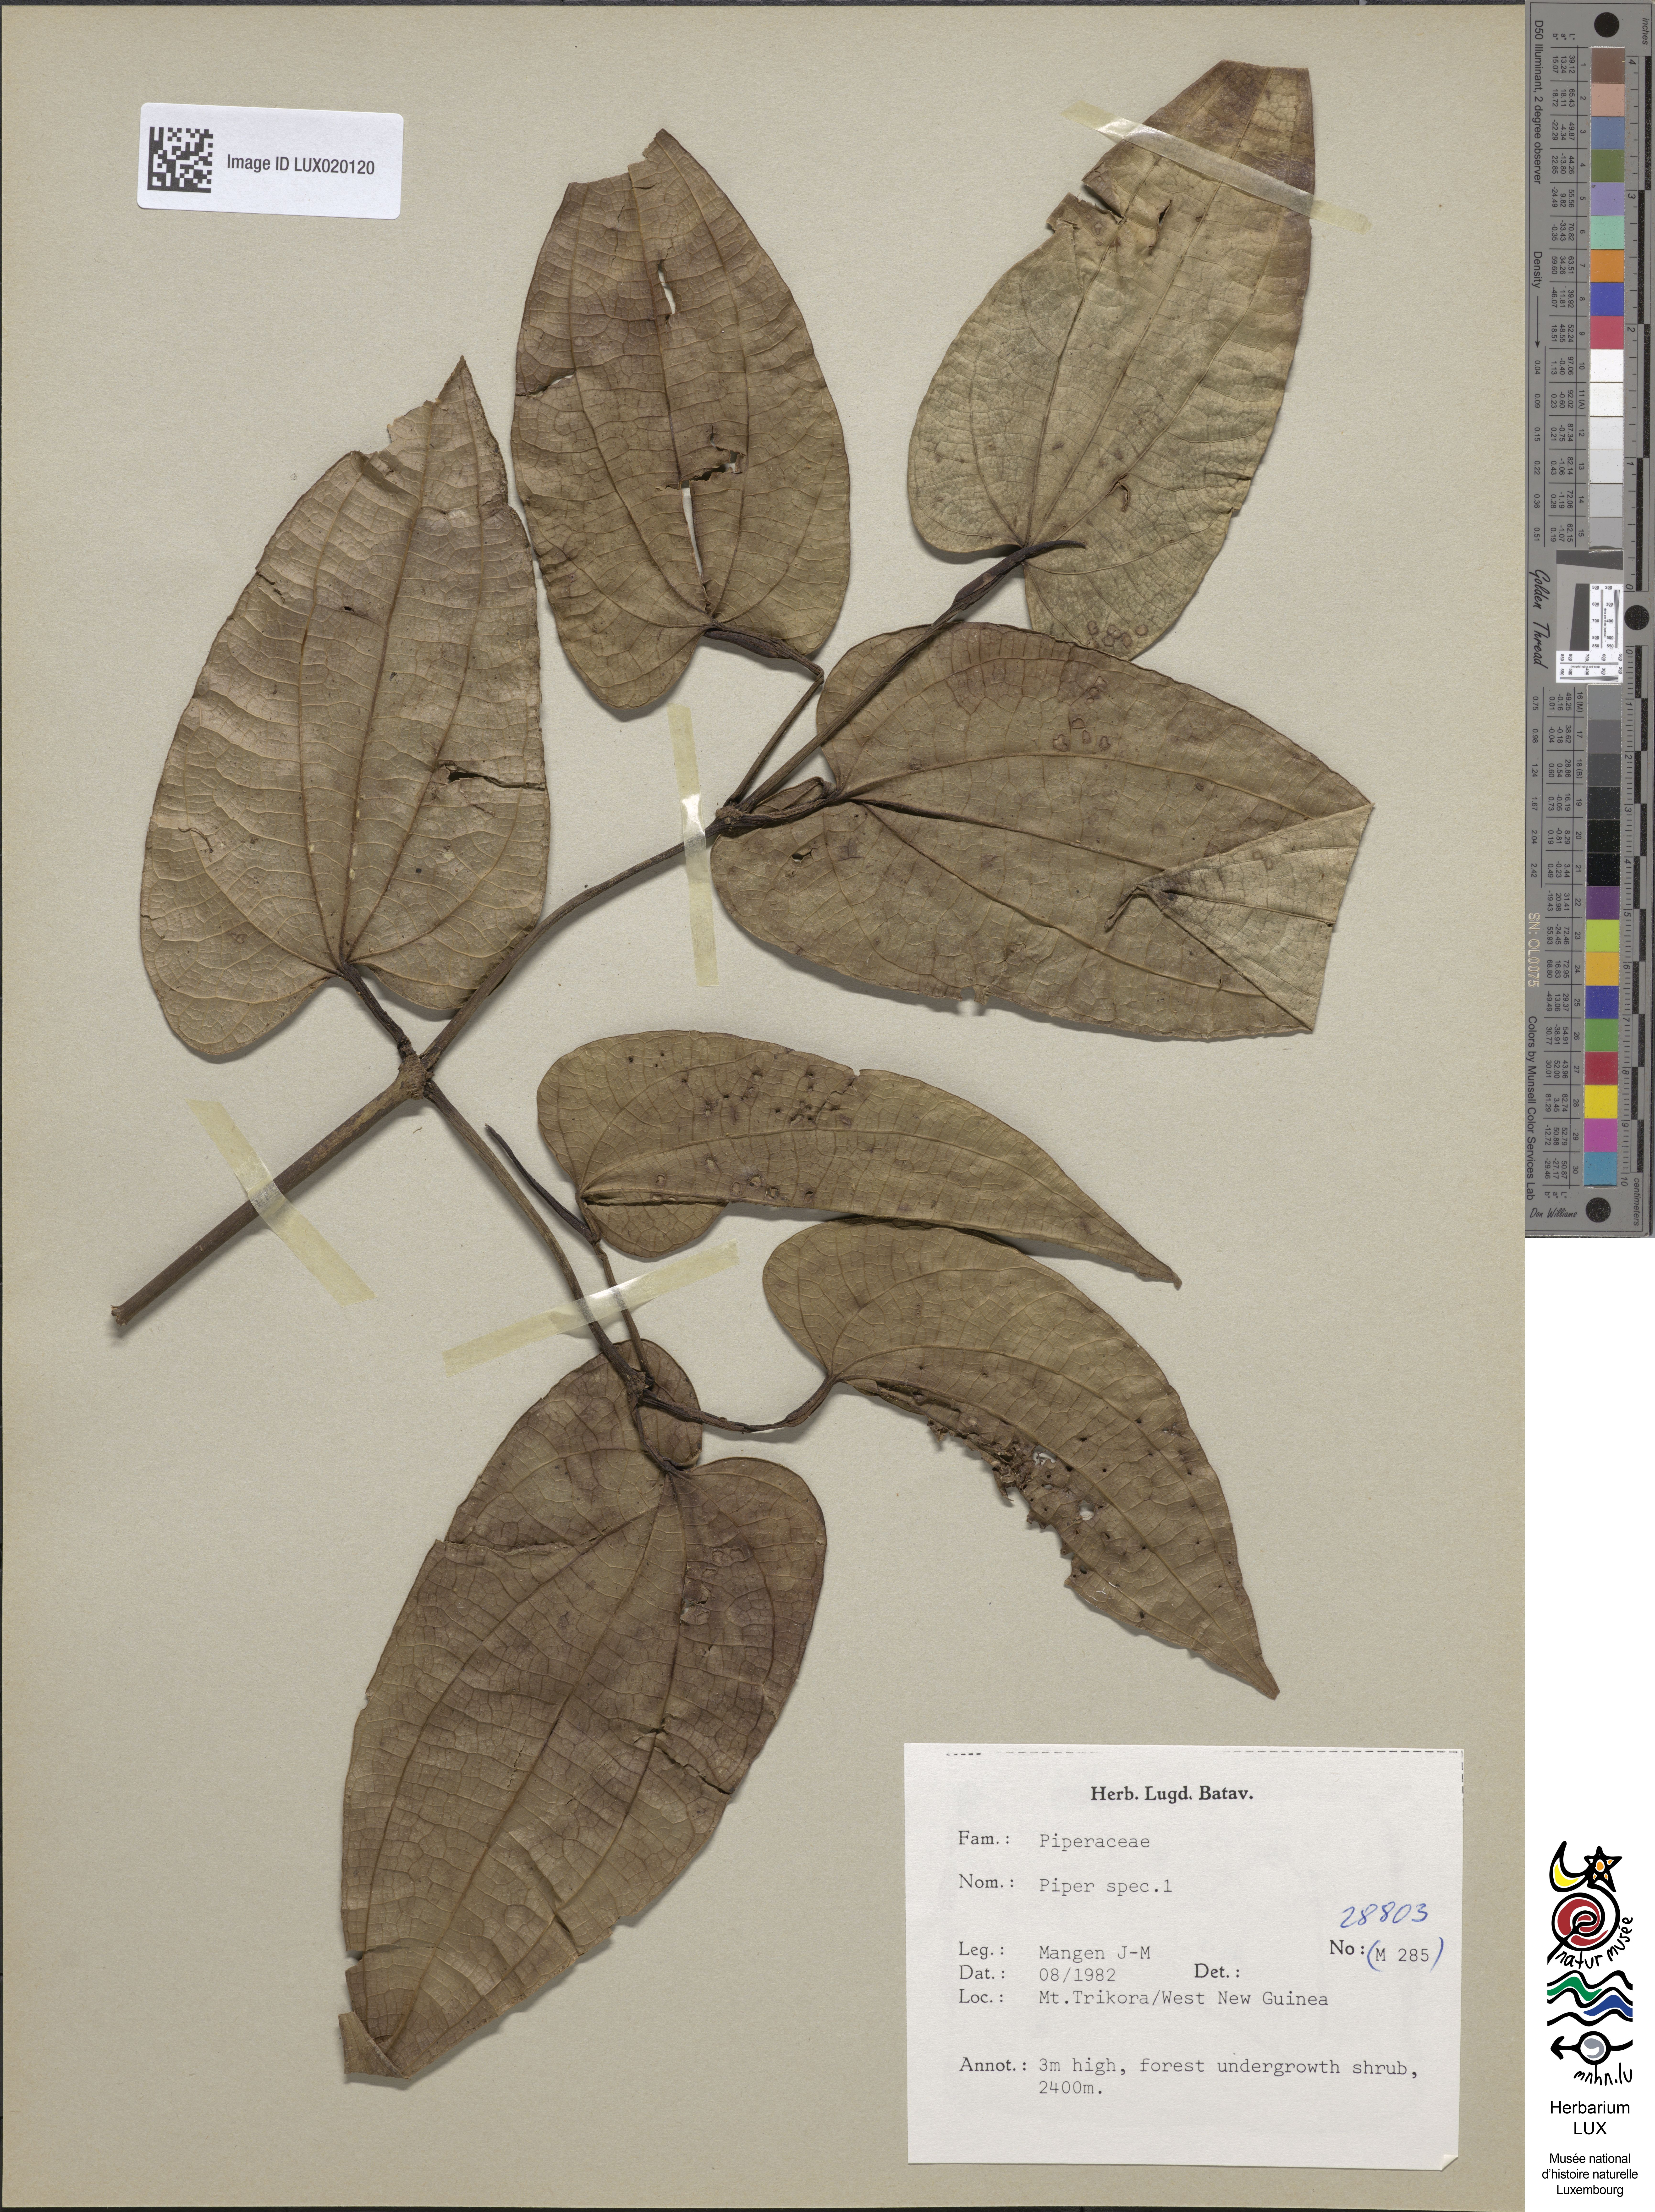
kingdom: Plantae
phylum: Tracheophyta
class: Magnoliopsida
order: Piperales
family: Piperaceae
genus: Piper
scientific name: Piper
